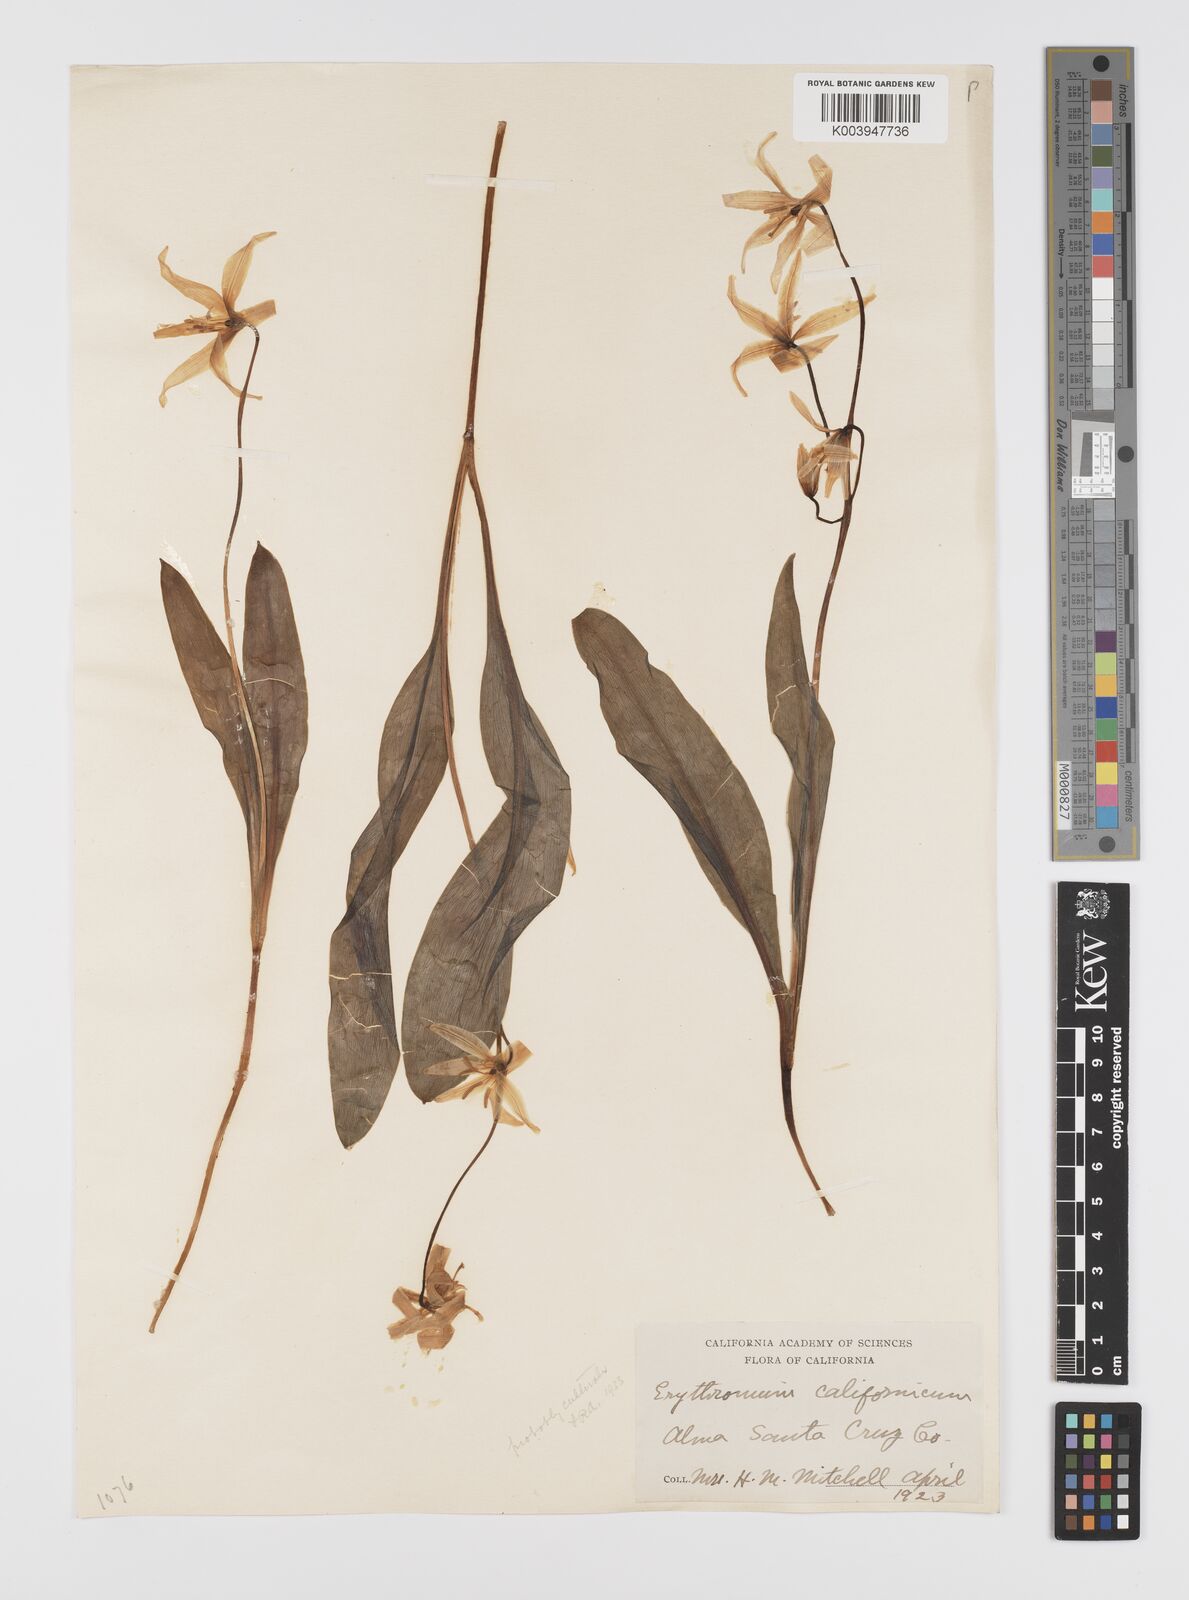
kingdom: Plantae
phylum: Tracheophyta
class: Liliopsida
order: Liliales
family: Liliaceae
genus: Erythronium
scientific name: Erythronium californicum
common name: Fawn-lily
